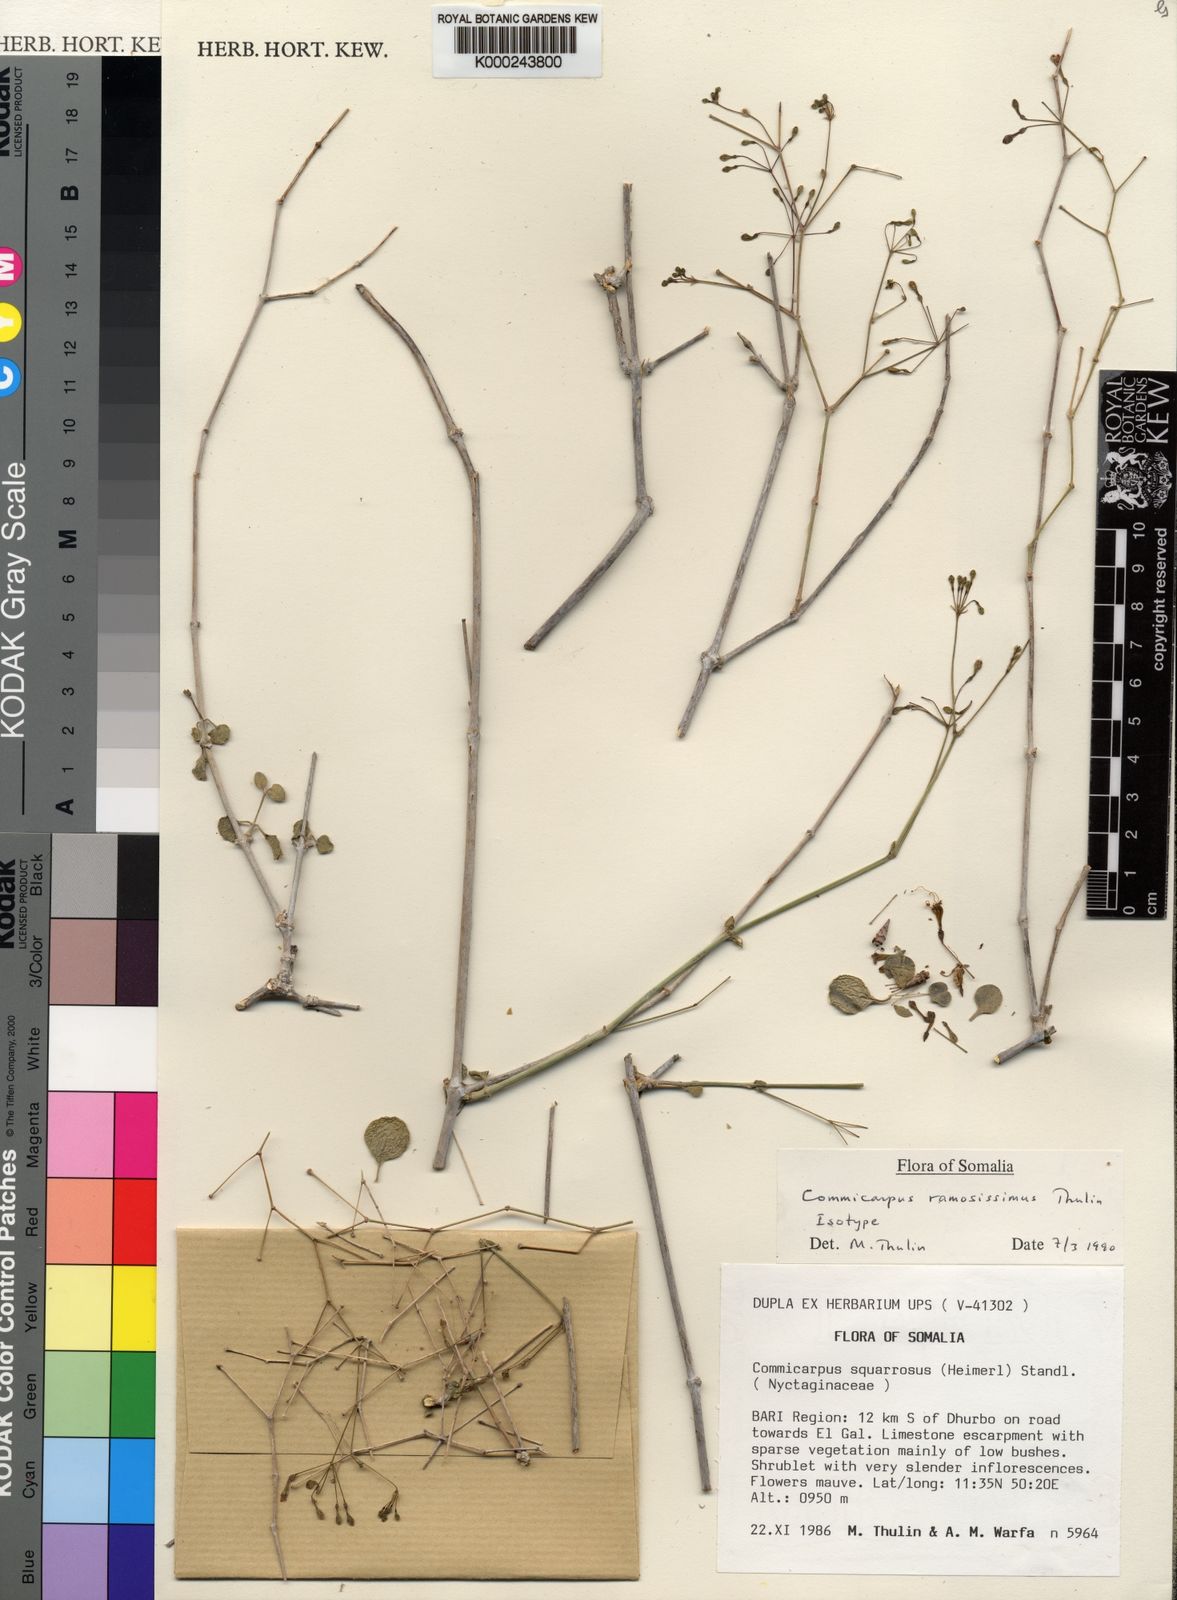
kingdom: Plantae
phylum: Tracheophyta
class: Magnoliopsida
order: Caryophyllales
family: Nyctaginaceae
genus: Commicarpus
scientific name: Commicarpus ramosissimus
